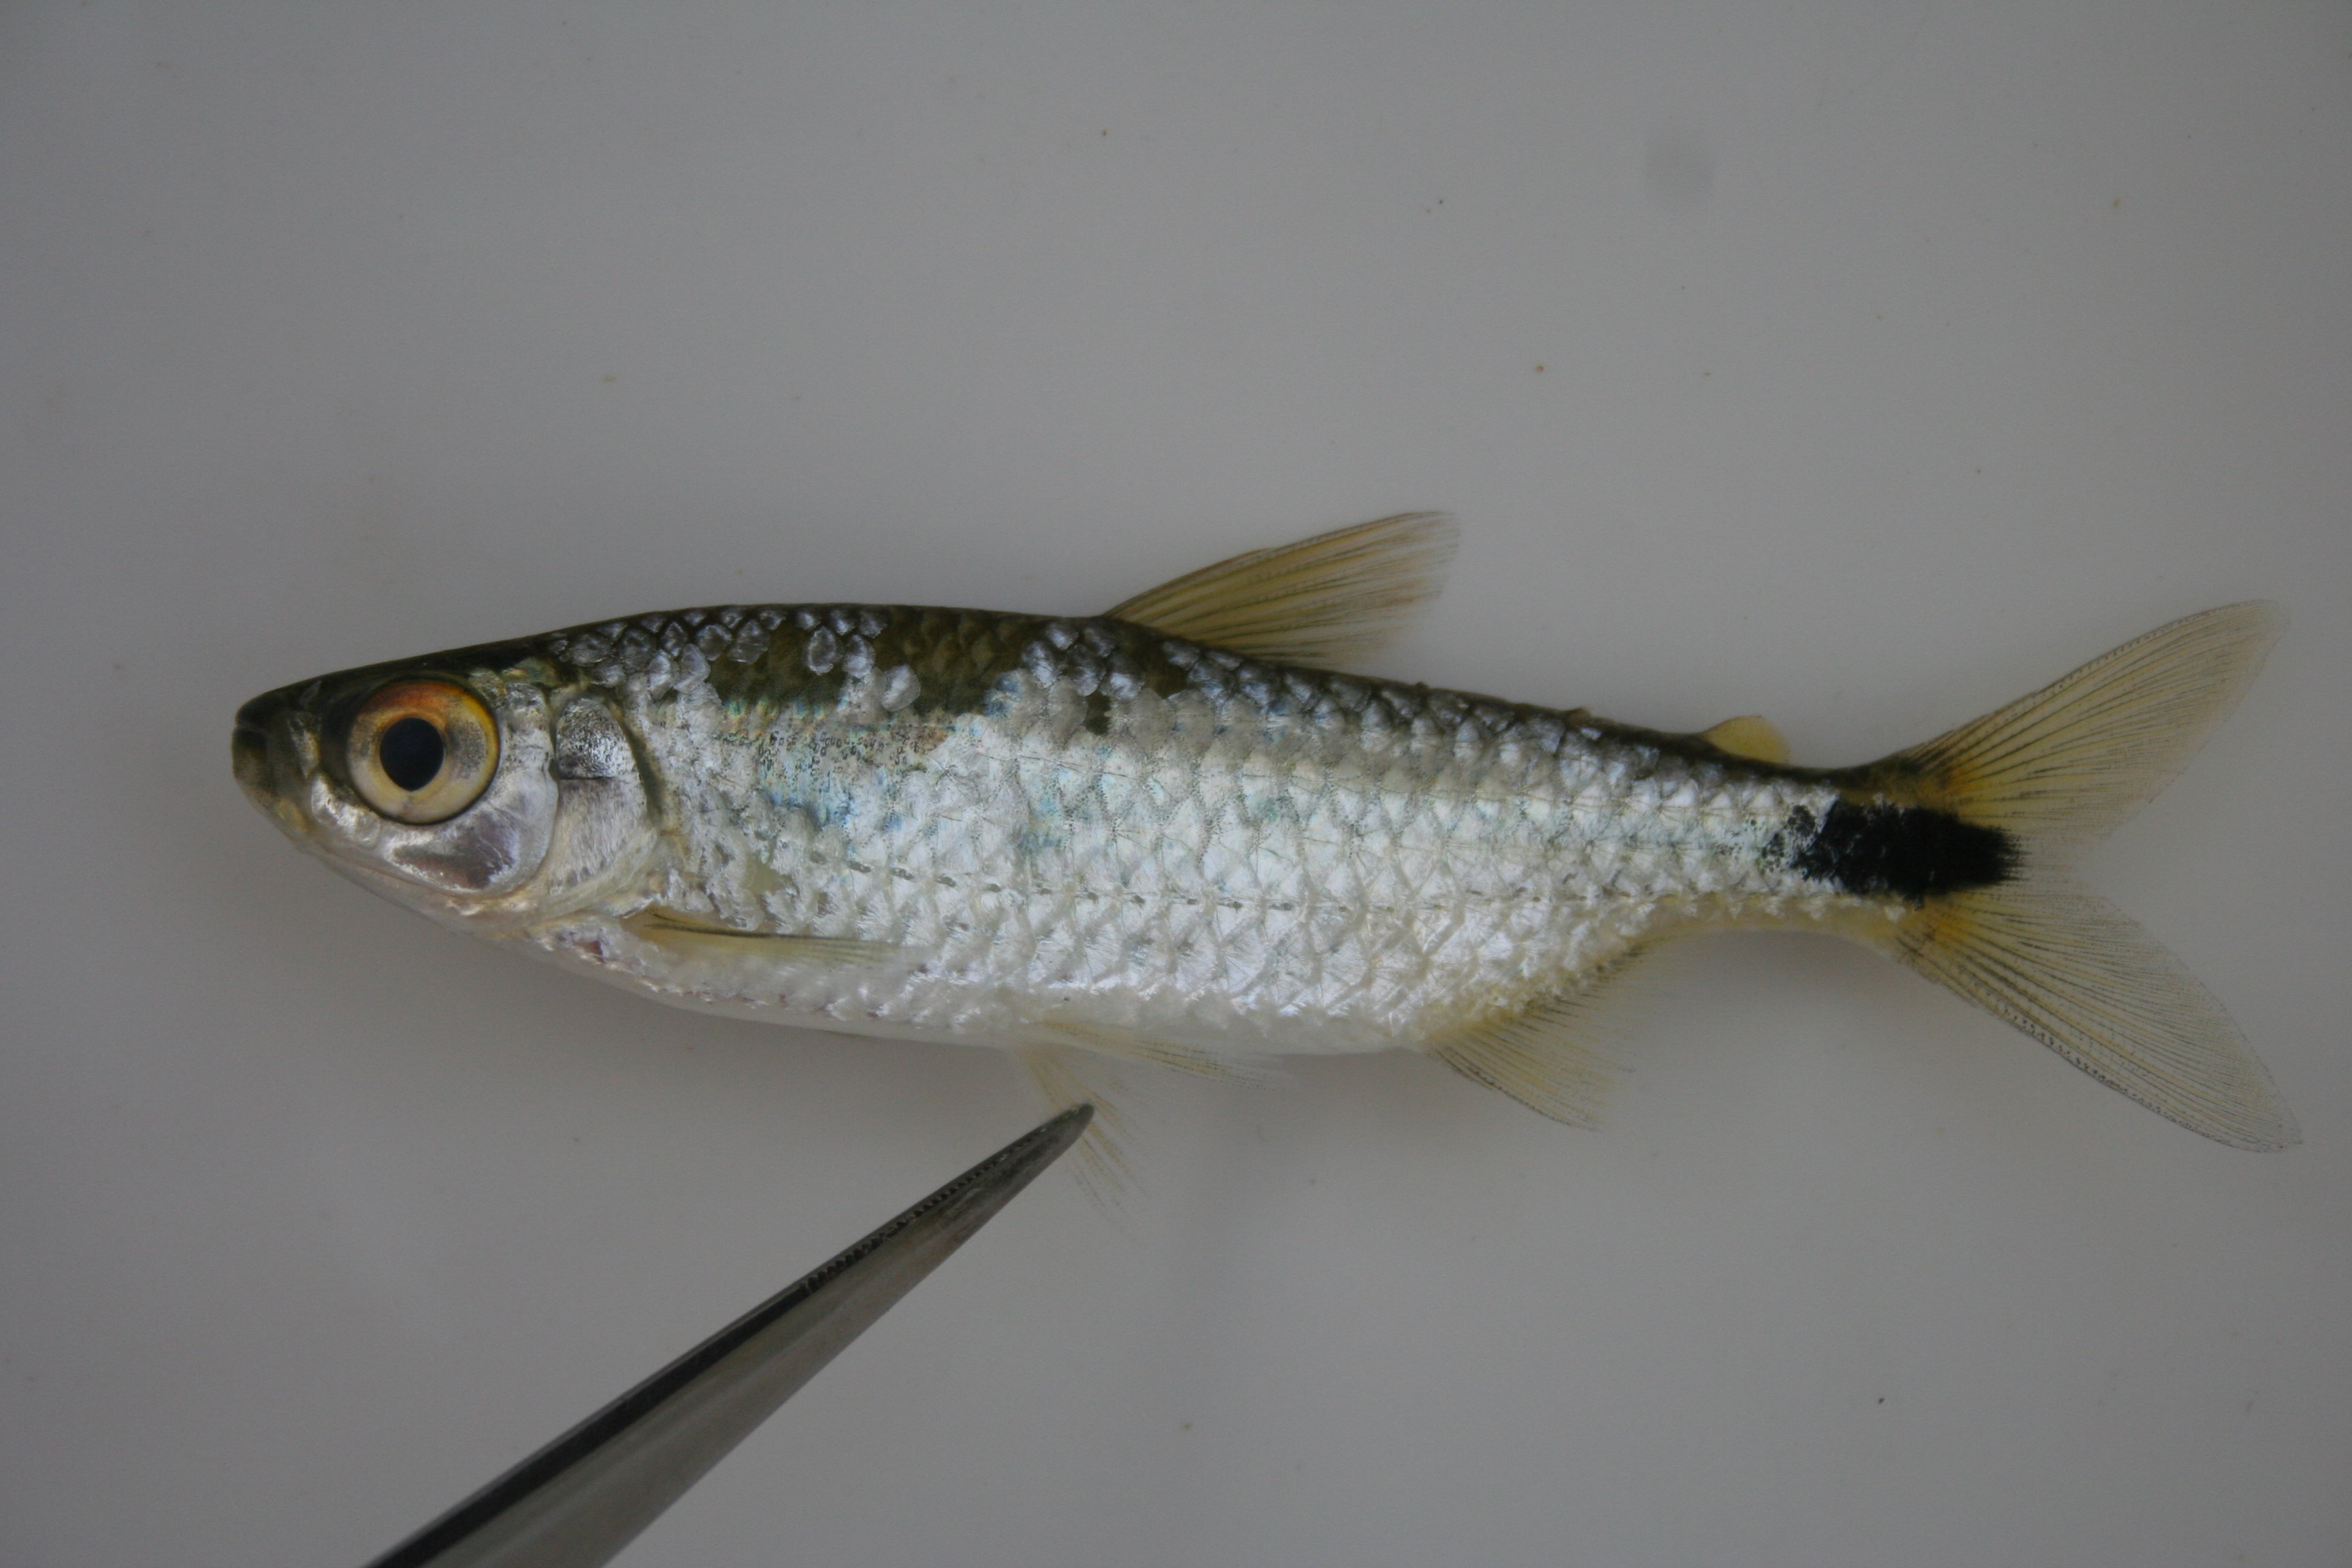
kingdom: Animalia
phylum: Chordata
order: Characiformes
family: Alestidae
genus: Brycinus
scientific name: Brycinus lateralis
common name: Striped robber
